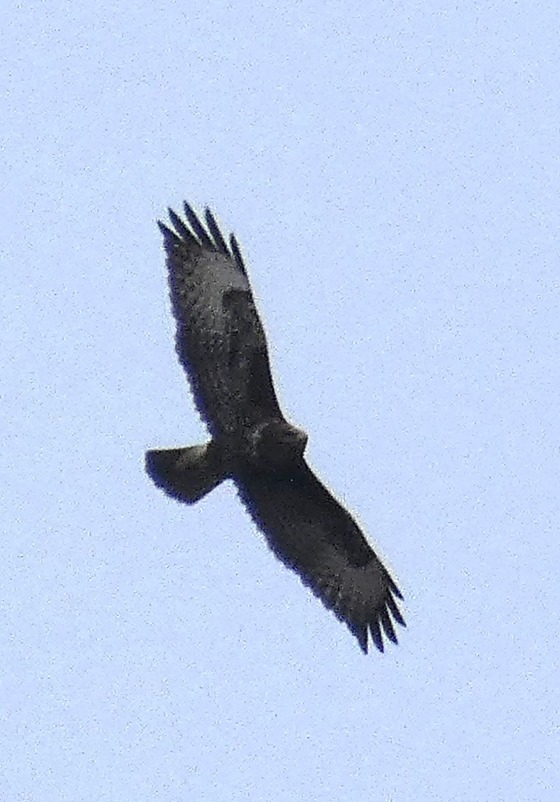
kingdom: Animalia
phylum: Chordata
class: Aves
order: Accipitriformes
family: Accipitridae
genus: Buteo
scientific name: Buteo buteo
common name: Musvåge
